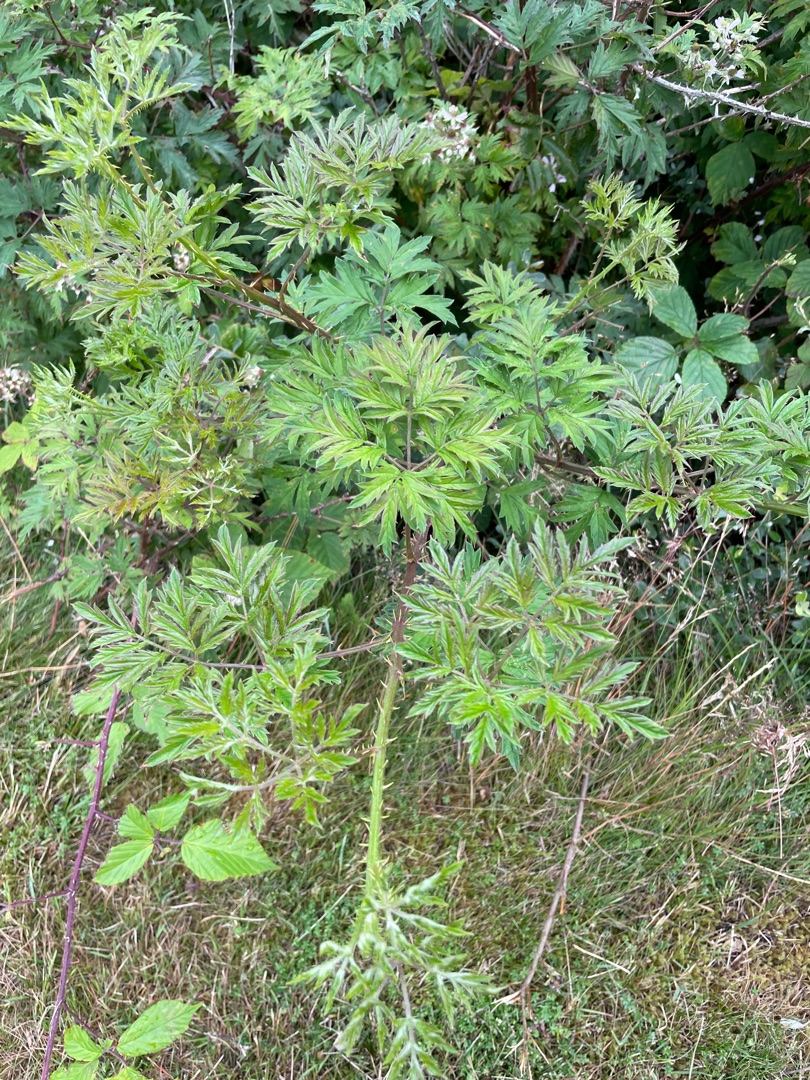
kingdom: Plantae
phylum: Tracheophyta
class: Magnoliopsida
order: Rosales
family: Rosaceae
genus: Rubus
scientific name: Rubus laciniatus
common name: Fliget brombær
